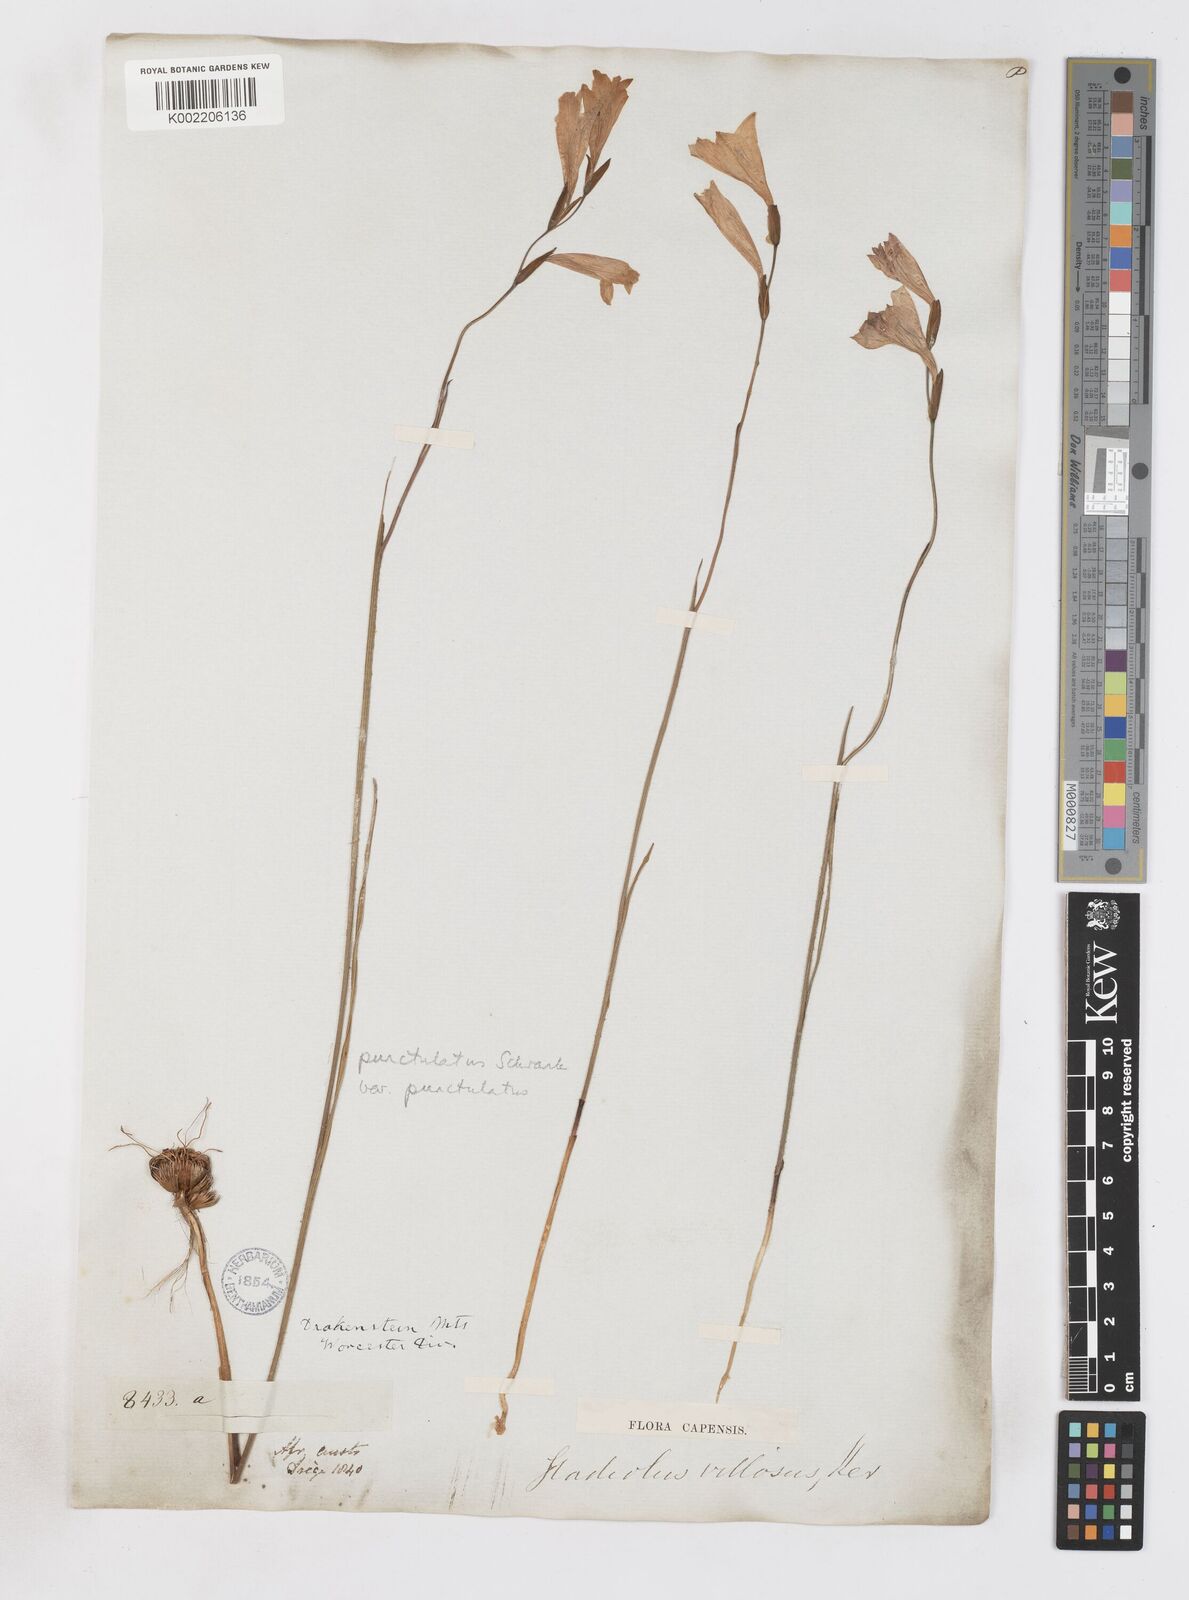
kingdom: Plantae
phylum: Tracheophyta
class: Liliopsida
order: Asparagales
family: Iridaceae
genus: Gladiolus
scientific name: Gladiolus hirsutus
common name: Small pink afrikaner
